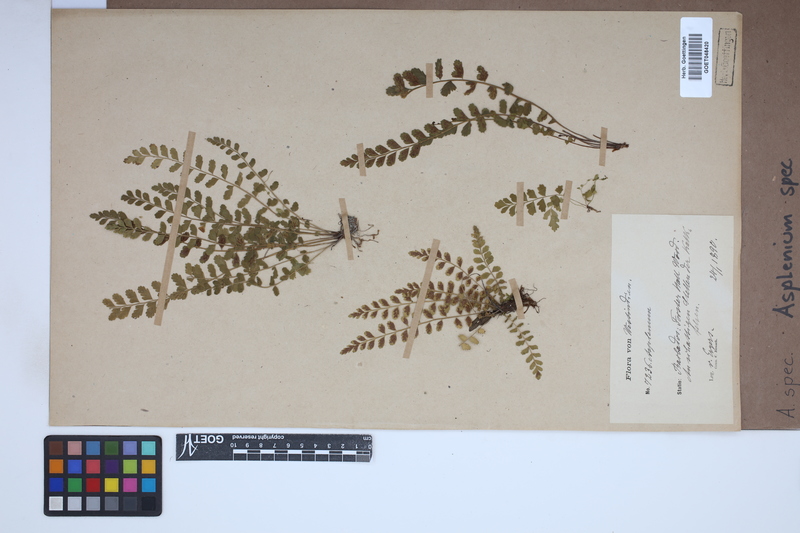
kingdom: Plantae
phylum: Tracheophyta
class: Polypodiopsida
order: Polypodiales
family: Aspleniaceae
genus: Asplenium
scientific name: Asplenium
